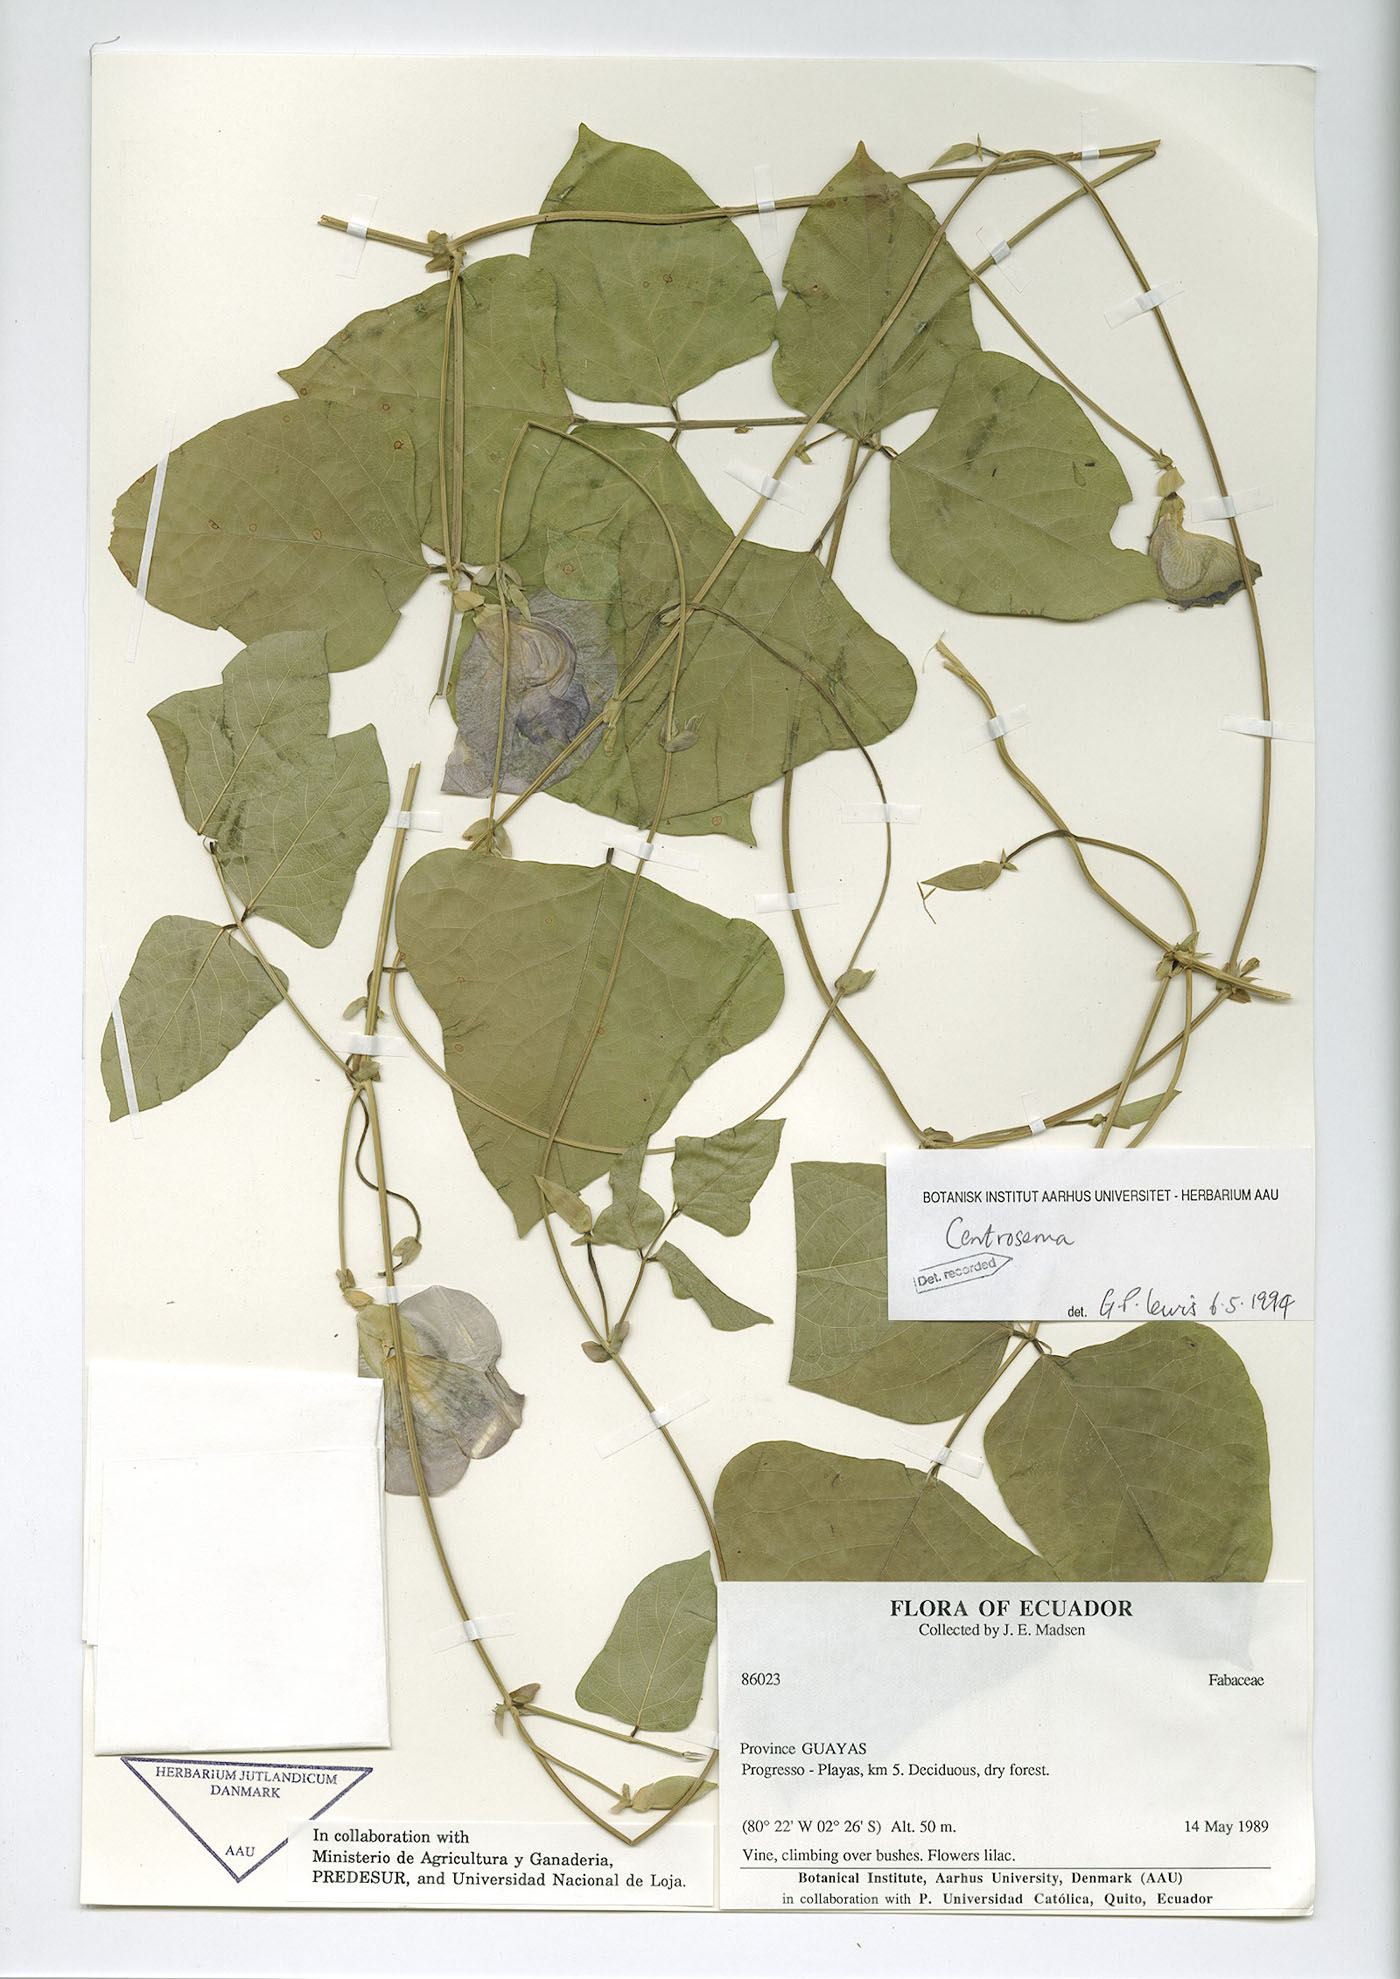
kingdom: Plantae
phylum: Tracheophyta
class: Magnoliopsida
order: Fabales
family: Fabaceae
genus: Centrosema
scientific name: Centrosema schottii
